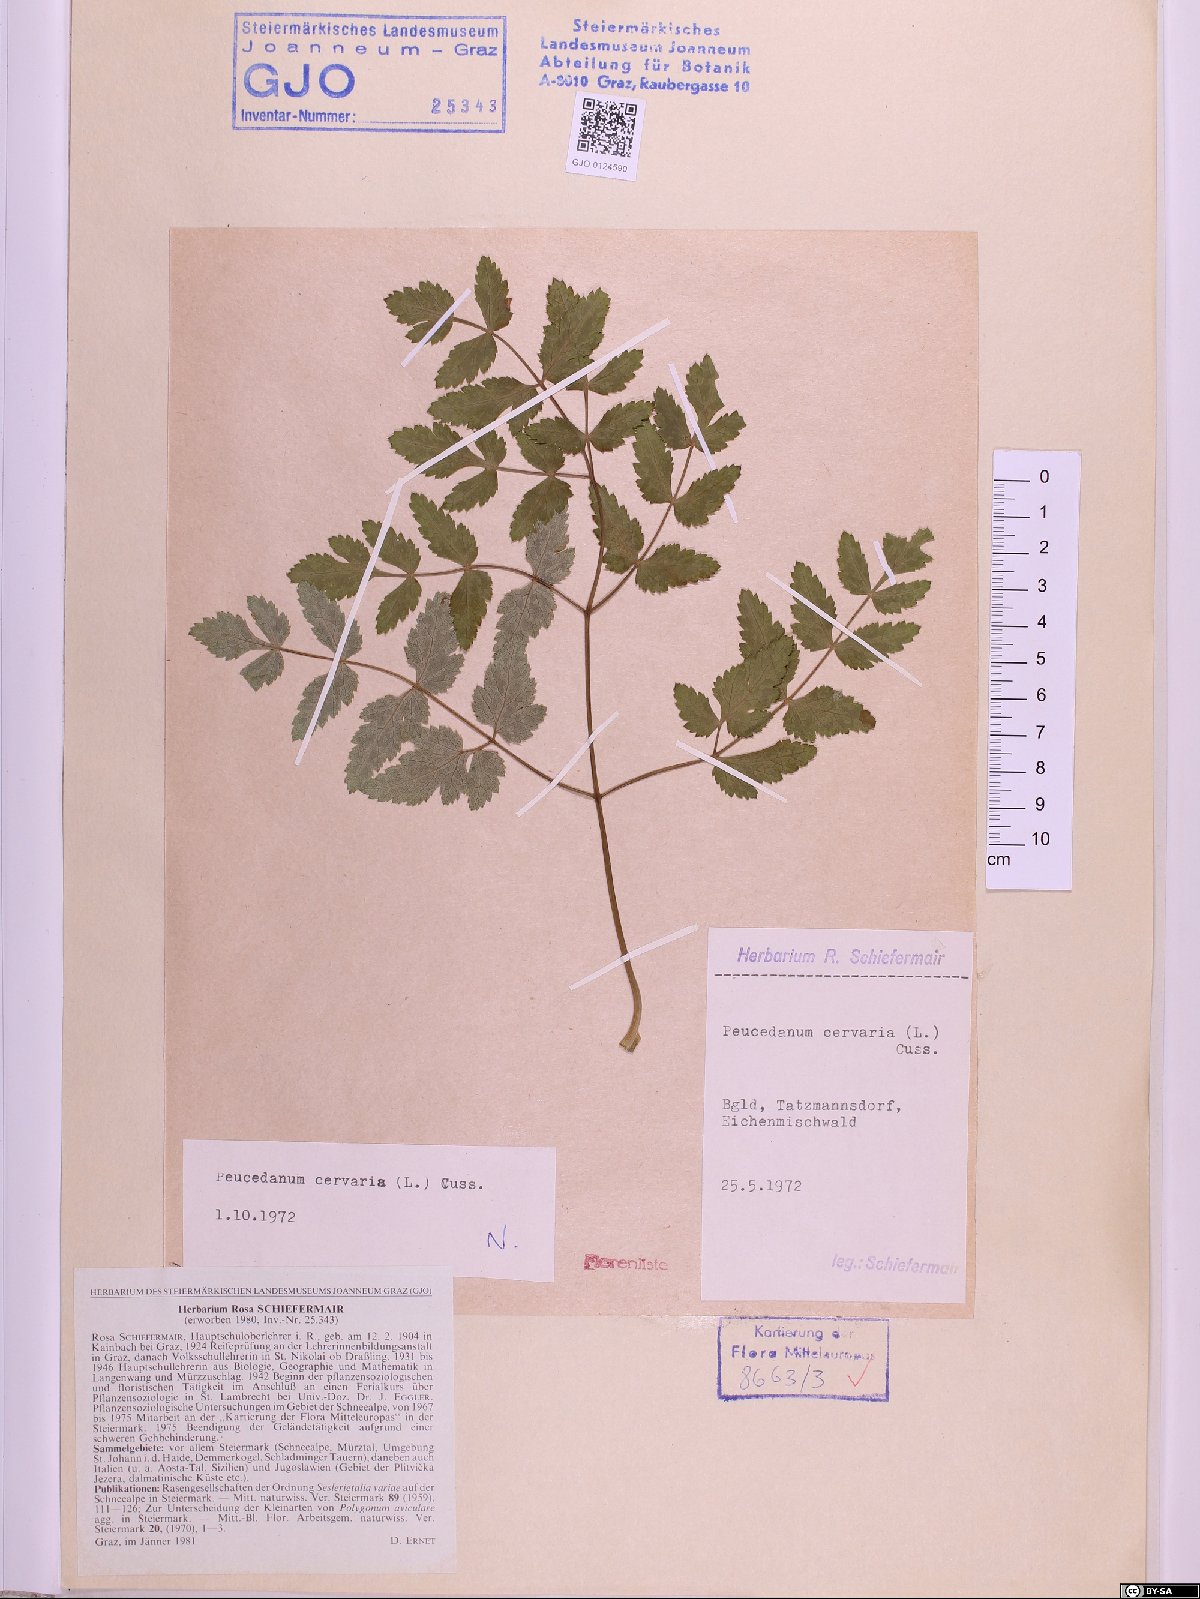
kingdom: Plantae
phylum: Tracheophyta
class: Magnoliopsida
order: Apiales
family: Apiaceae
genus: Cervaria
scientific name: Cervaria rivini
